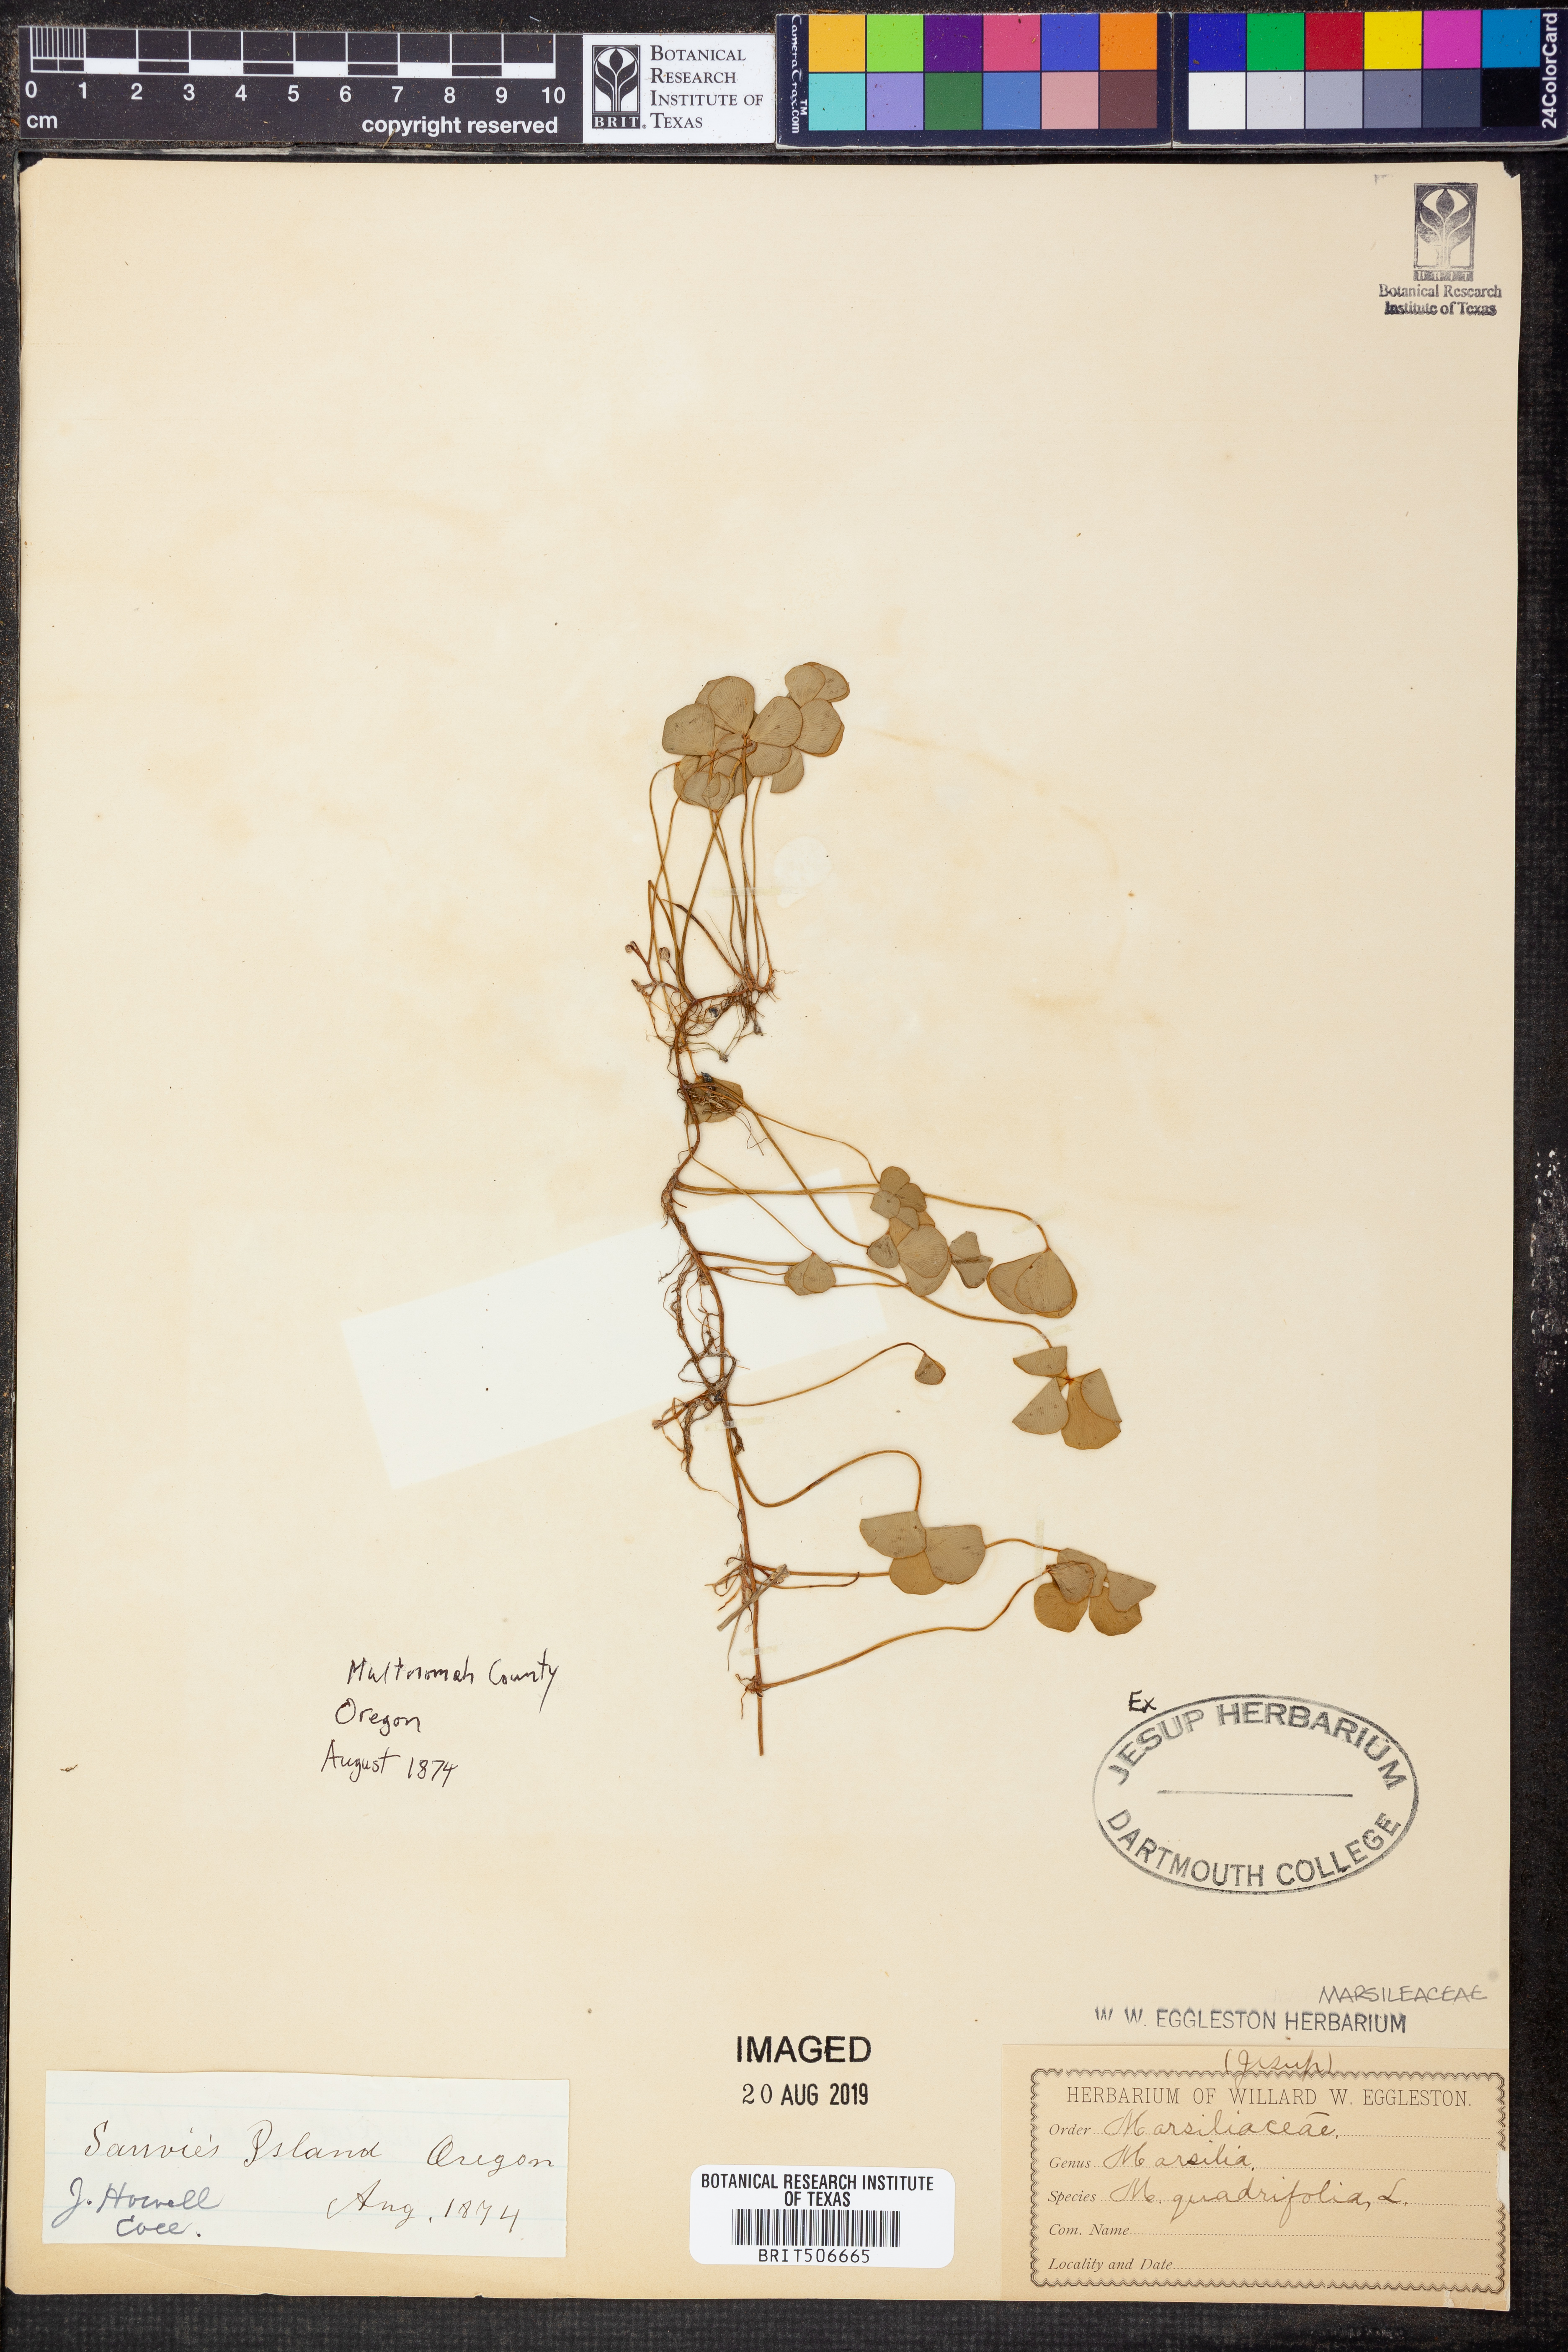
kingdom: Plantae
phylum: Tracheophyta
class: Polypodiopsida
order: Salviniales
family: Marsileaceae
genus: Marsilea
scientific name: Marsilea quadrifolia
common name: Water shamrock
